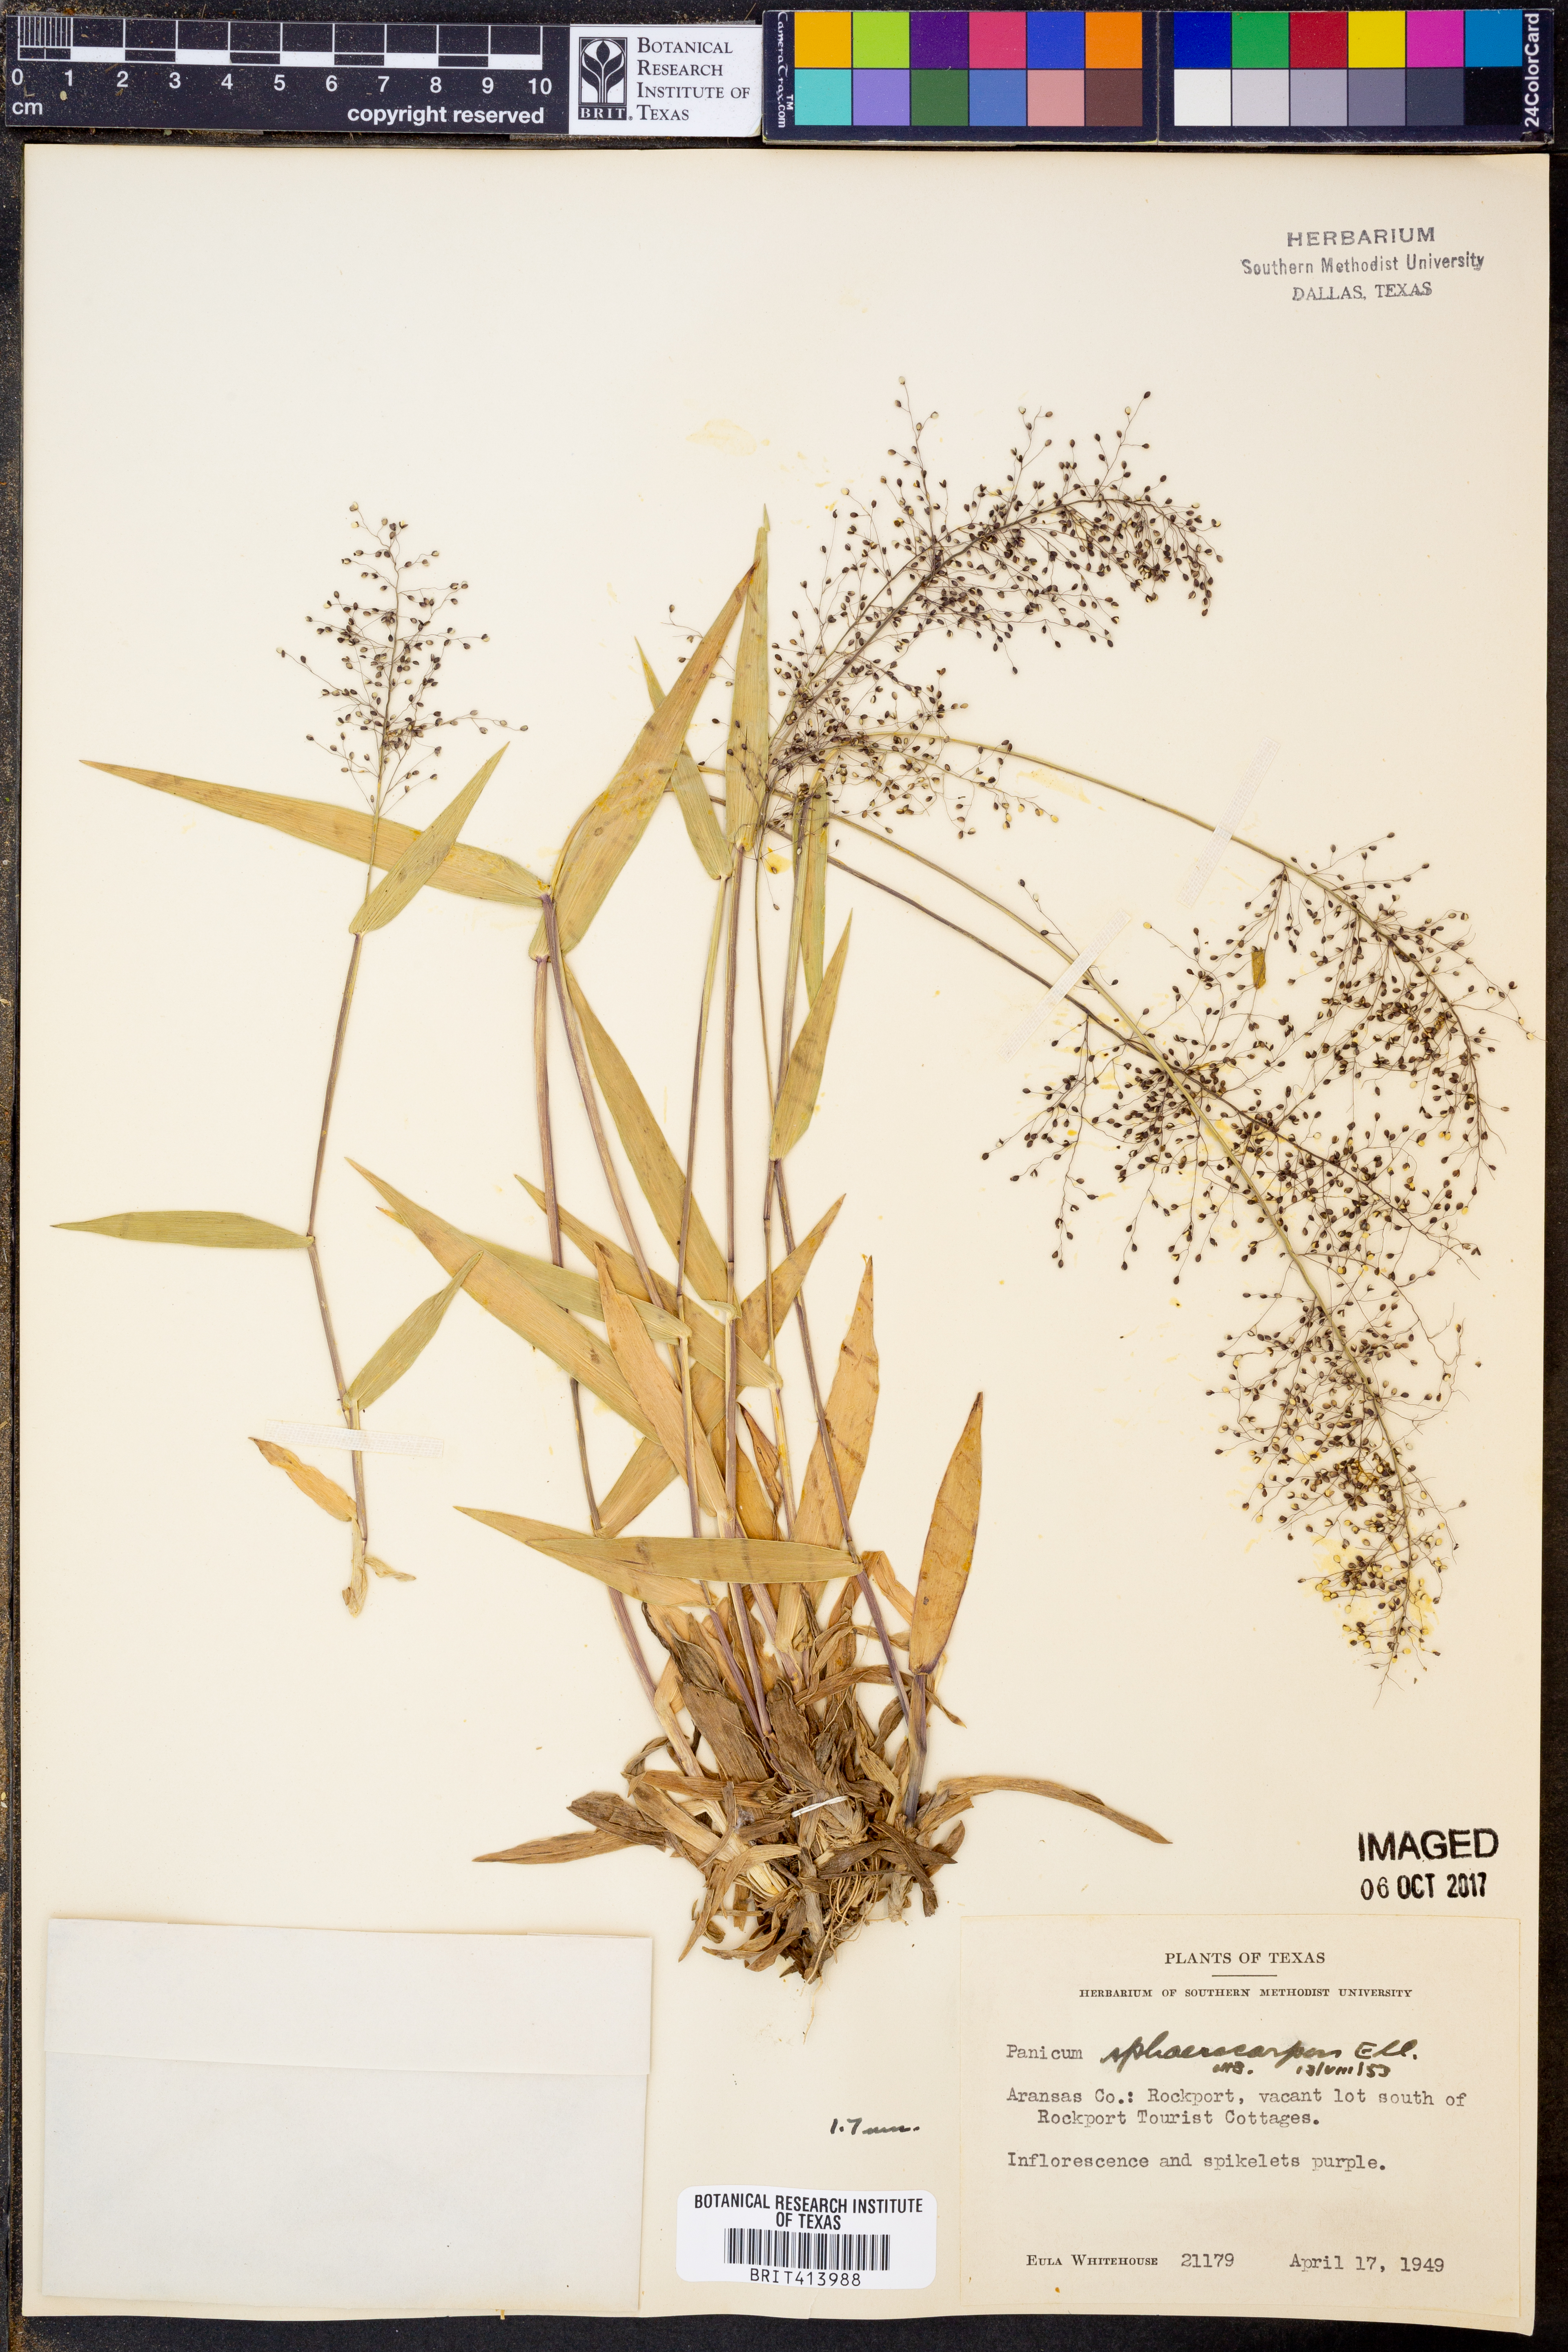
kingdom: Plantae
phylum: Tracheophyta
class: Liliopsida
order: Poales
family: Poaceae
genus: Dichanthelium
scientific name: Dichanthelium sphaerocarpon
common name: Round-fruited panicgrass
